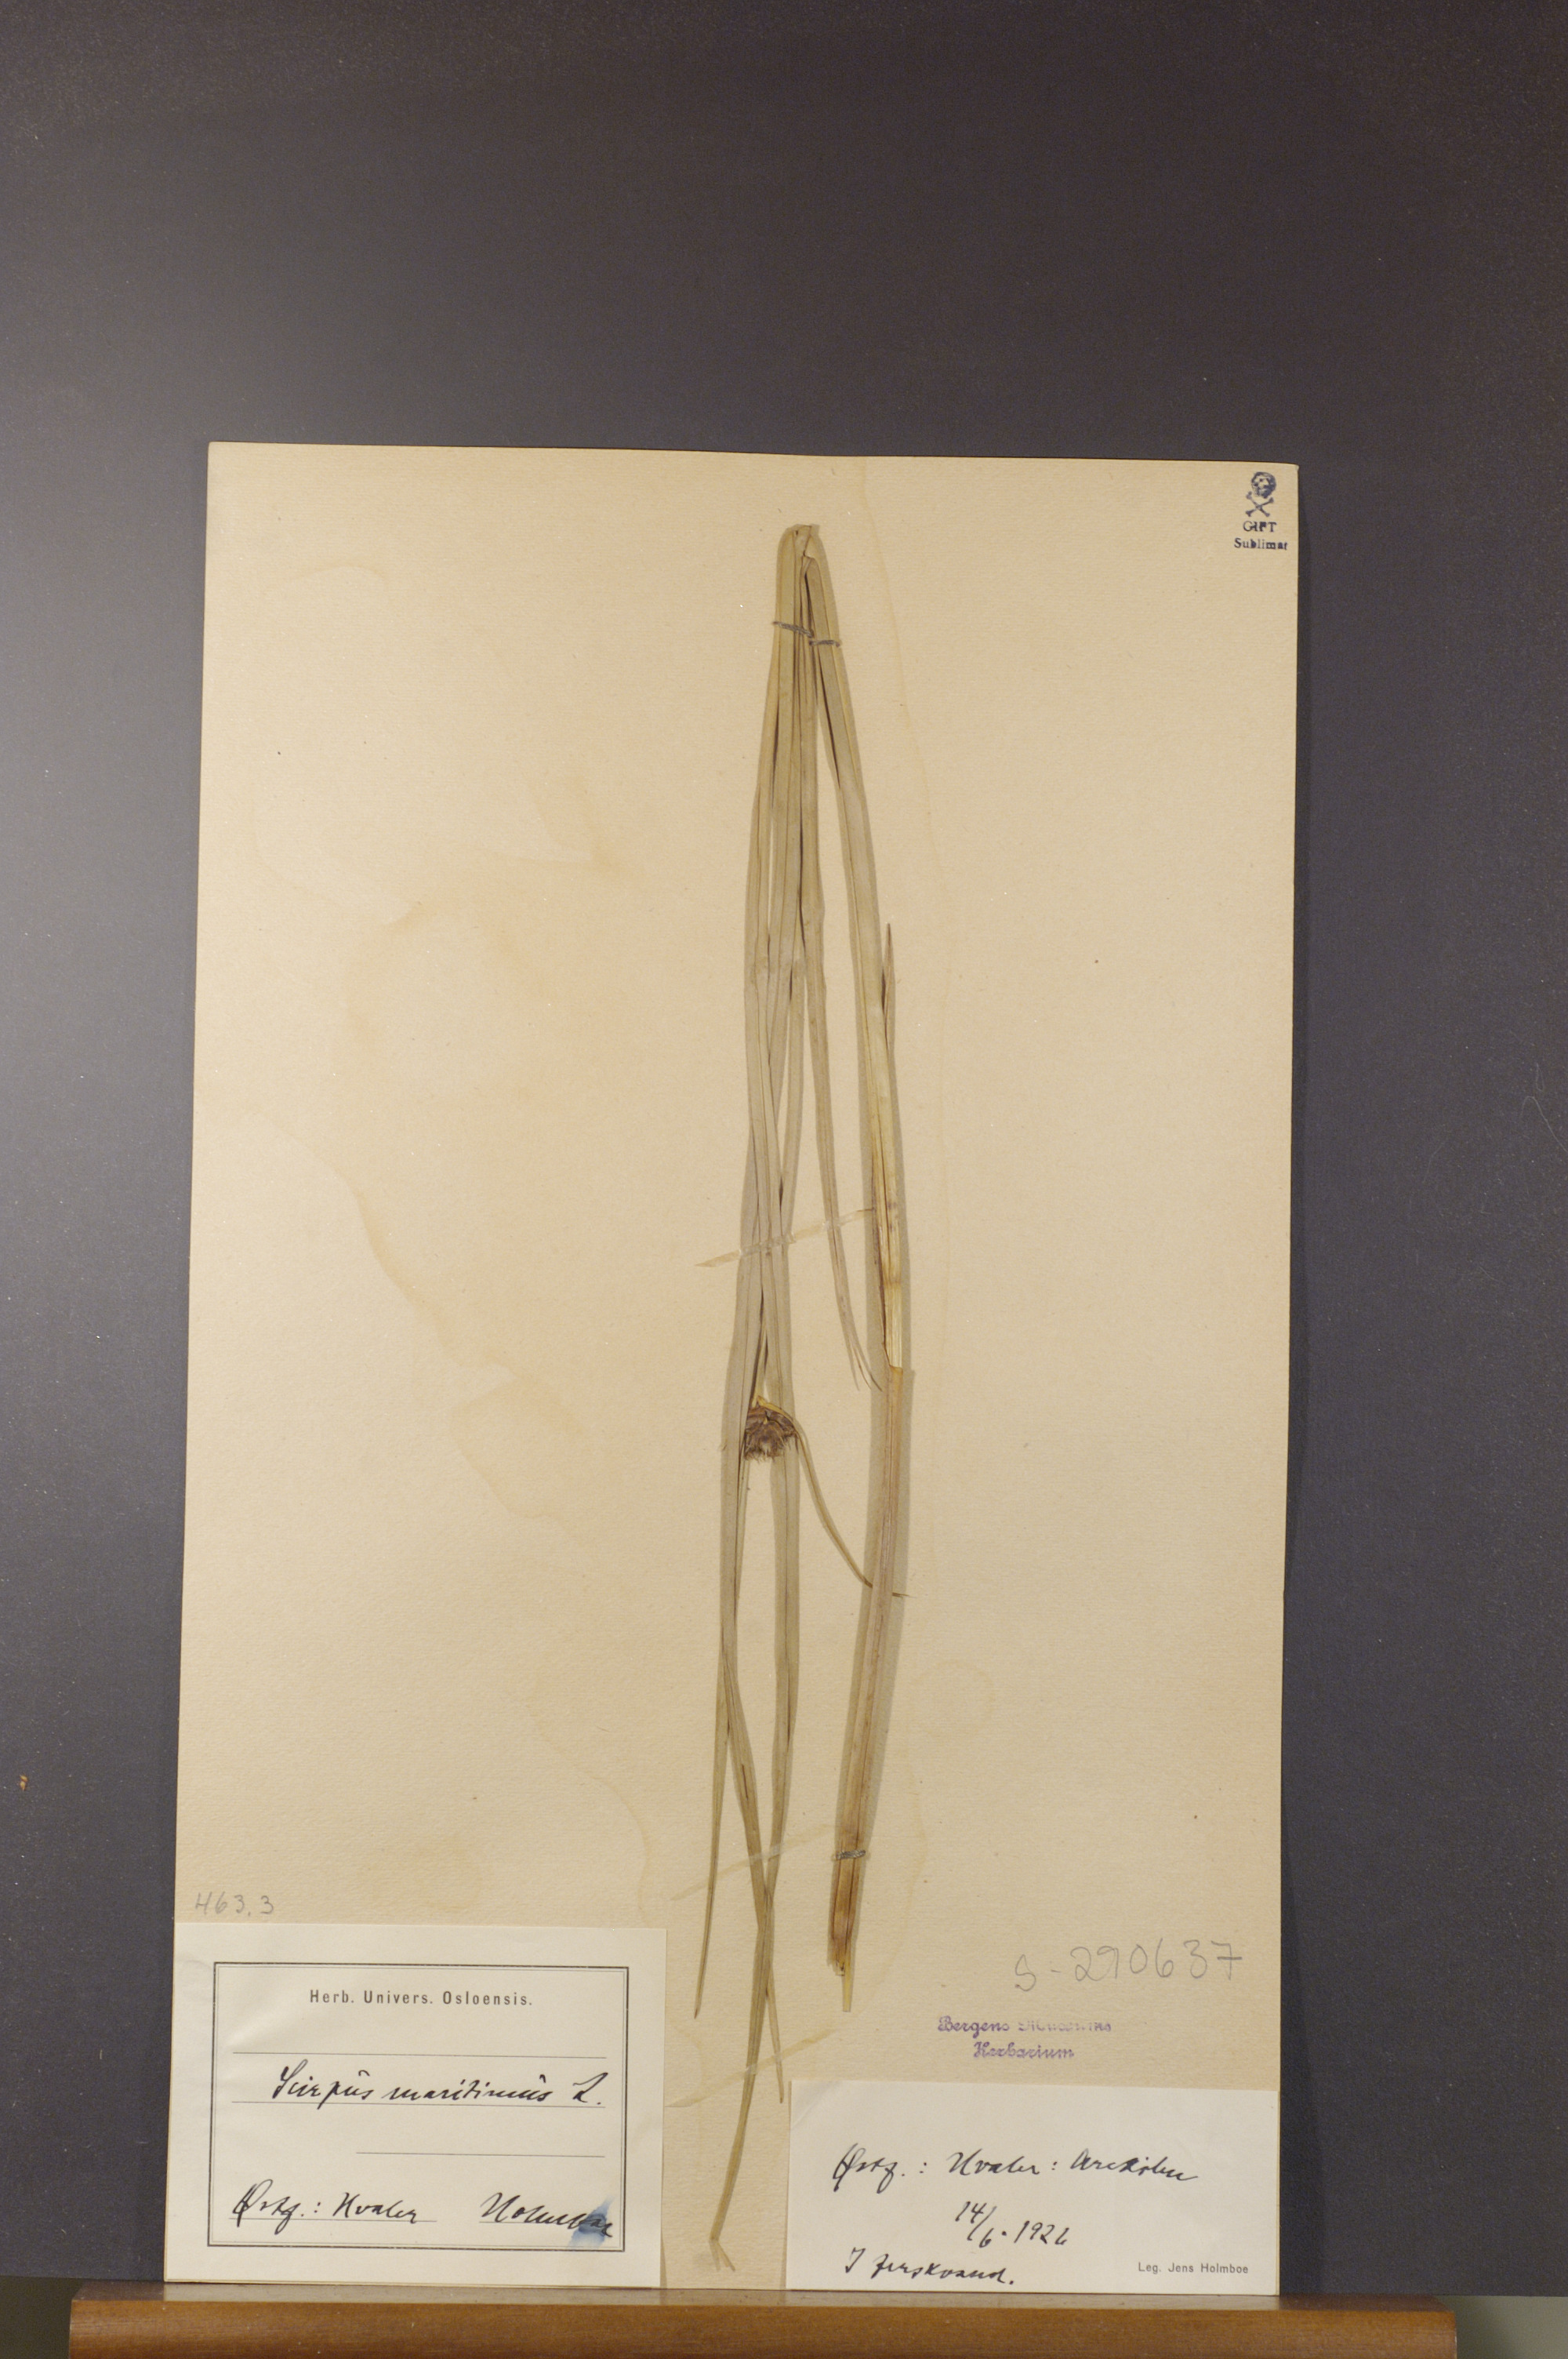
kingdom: Plantae
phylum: Tracheophyta
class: Liliopsida
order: Poales
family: Cyperaceae
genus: Bolboschoenus
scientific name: Bolboschoenus maritimus
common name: Sea club-rush
